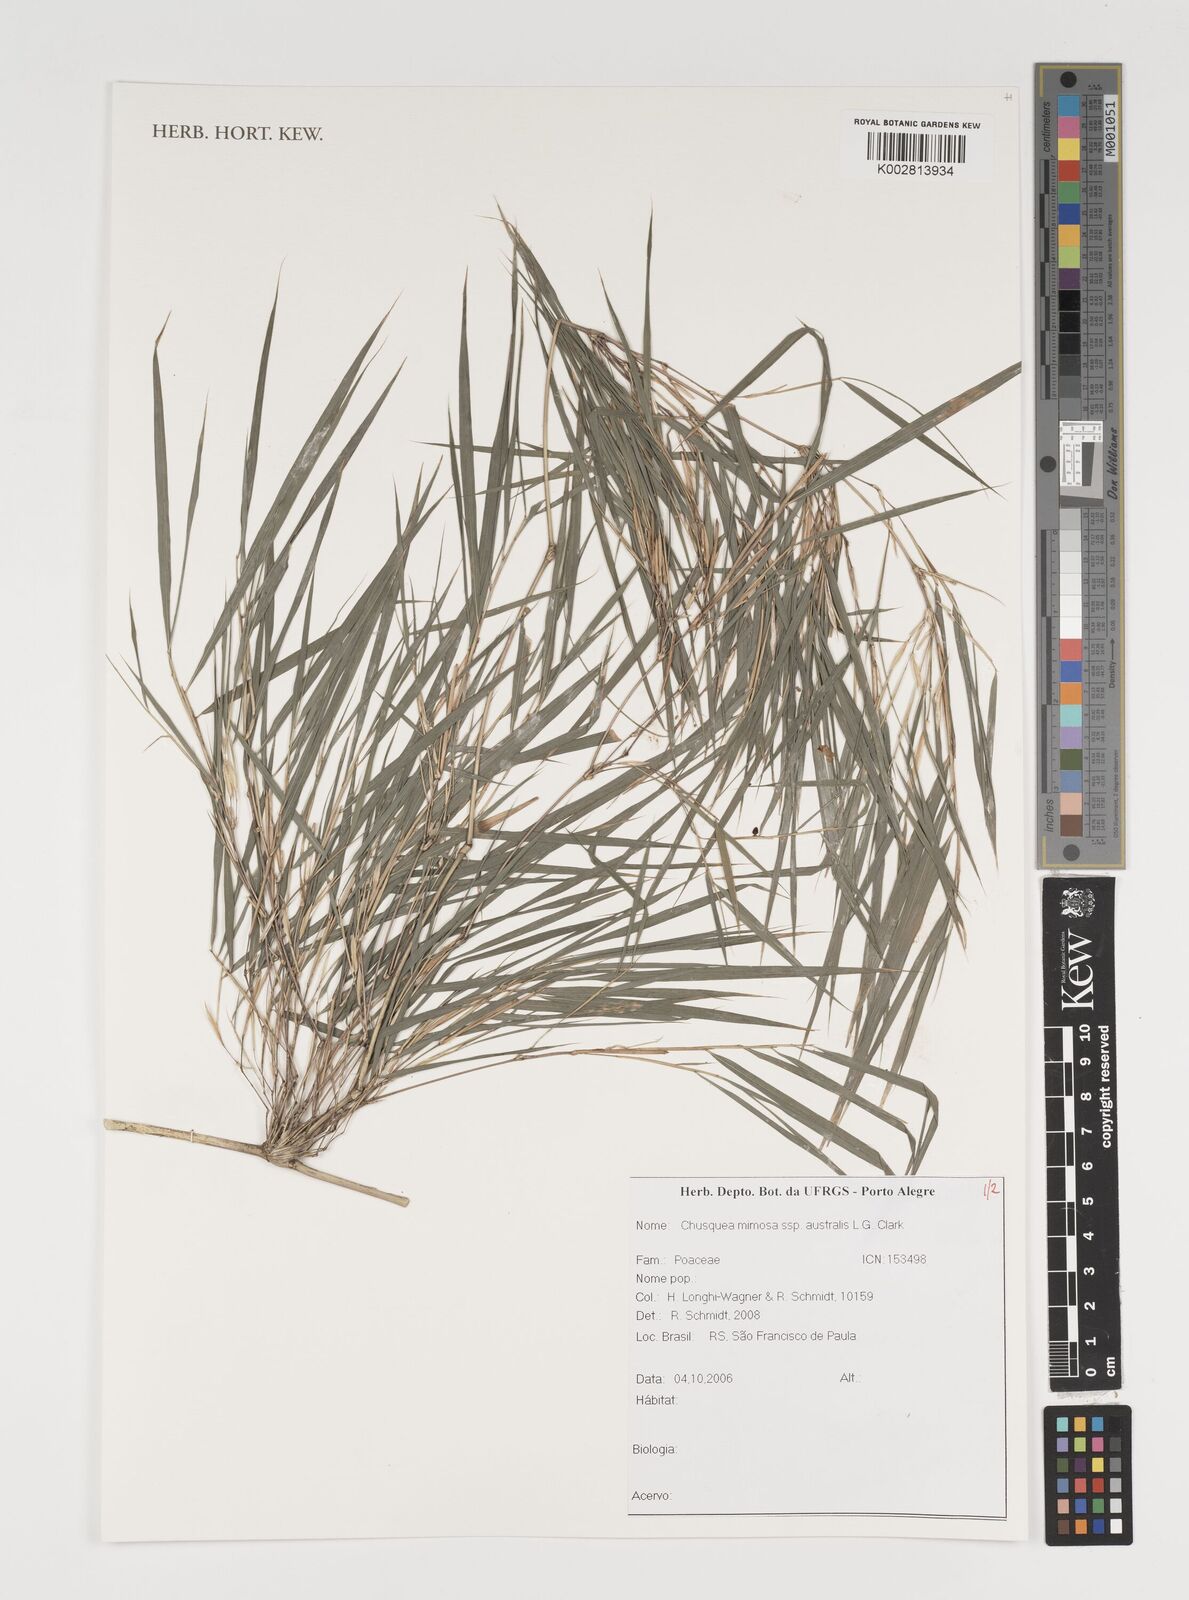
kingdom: Plantae
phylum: Tracheophyta
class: Liliopsida
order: Poales
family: Poaceae
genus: Chusquea
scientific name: Chusquea mimosa
